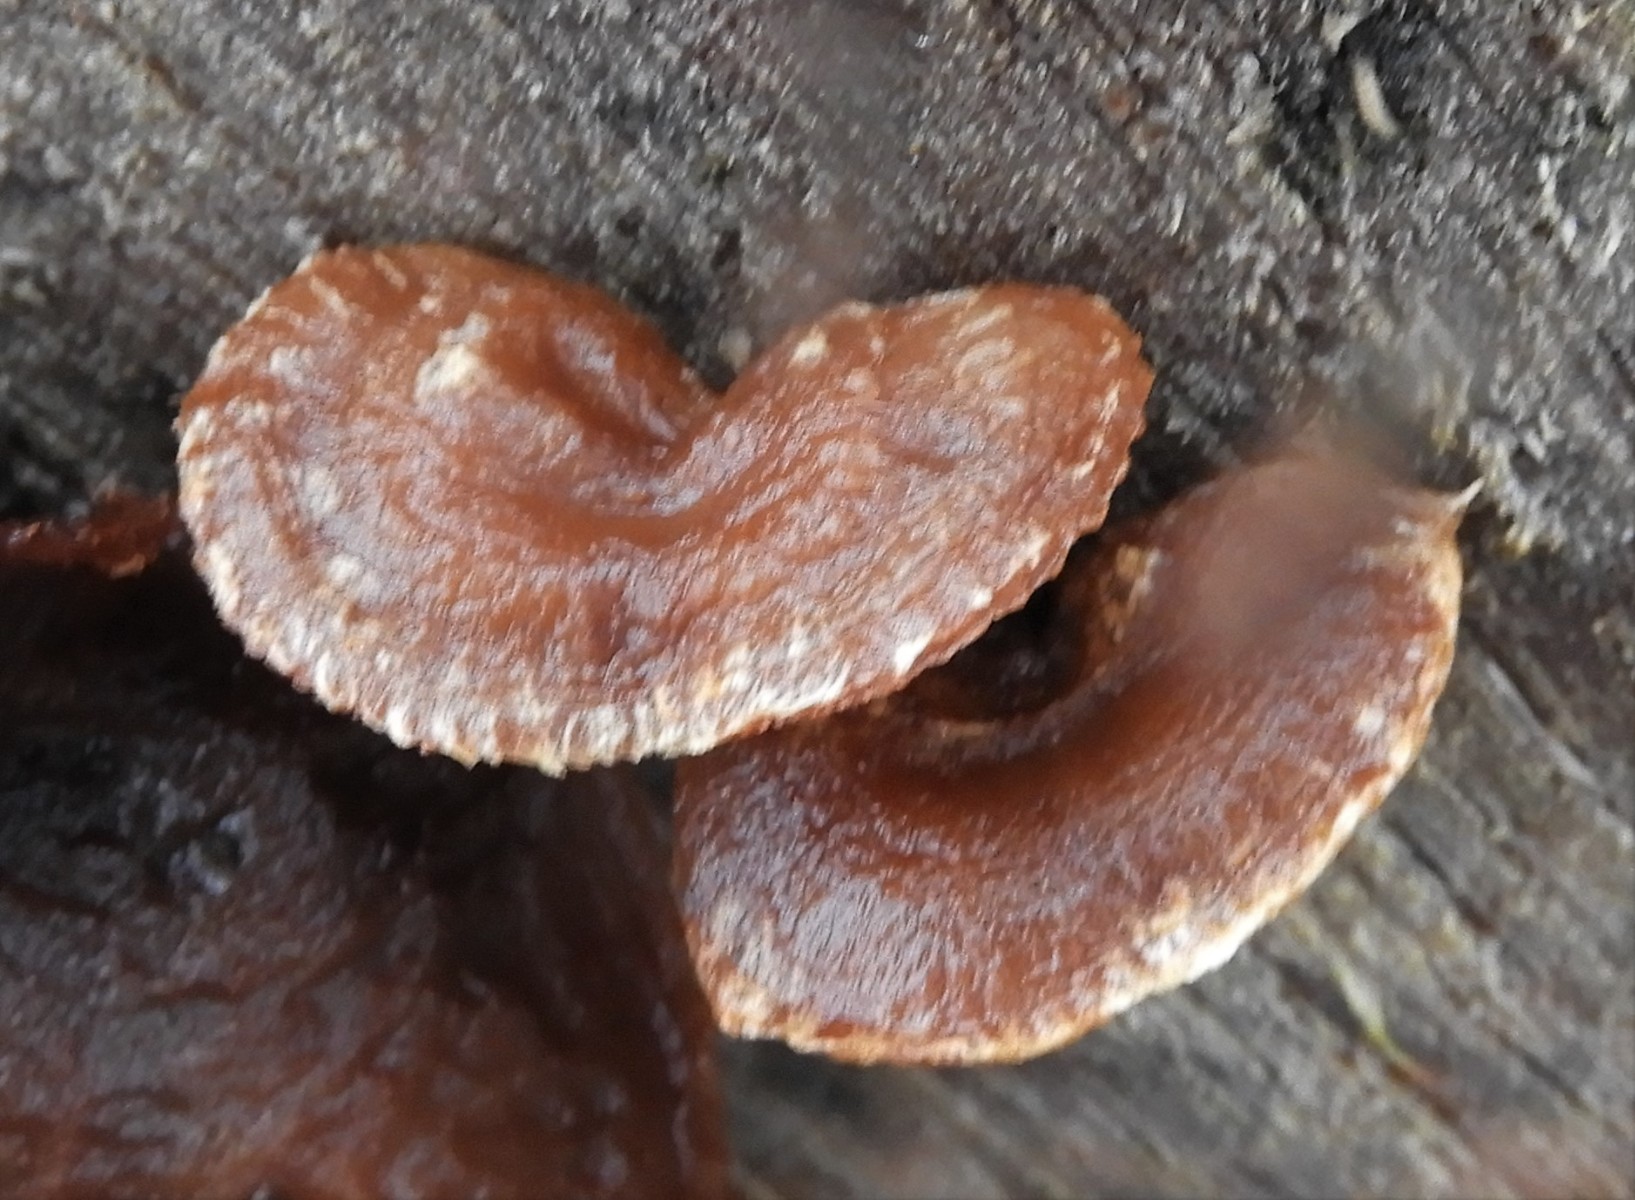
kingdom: Fungi
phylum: Basidiomycota
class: Agaricomycetes
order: Agaricales
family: Strophariaceae
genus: Pholiota
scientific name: Pholiota populnea
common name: poppel-kæmpeskælhat
